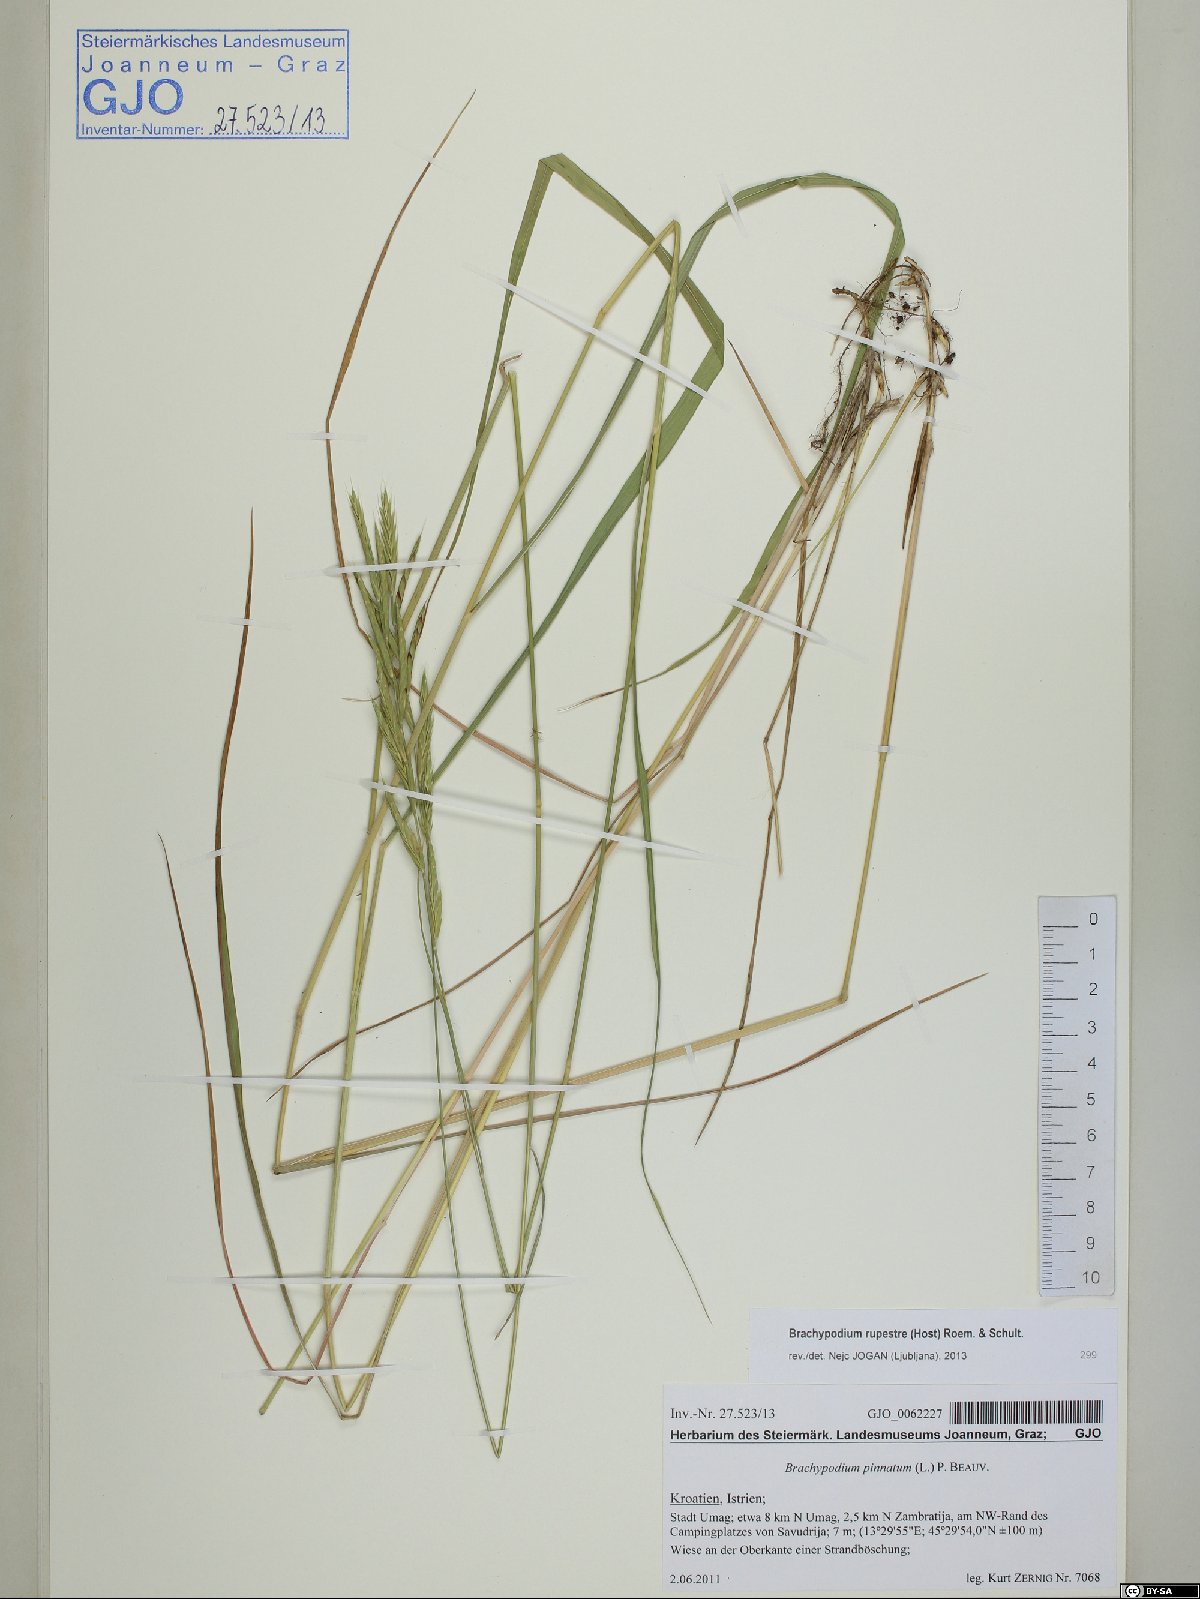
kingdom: Plantae
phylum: Tracheophyta
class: Liliopsida
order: Poales
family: Poaceae
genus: Brachypodium
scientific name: Brachypodium pinnatum
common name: Tor grass
